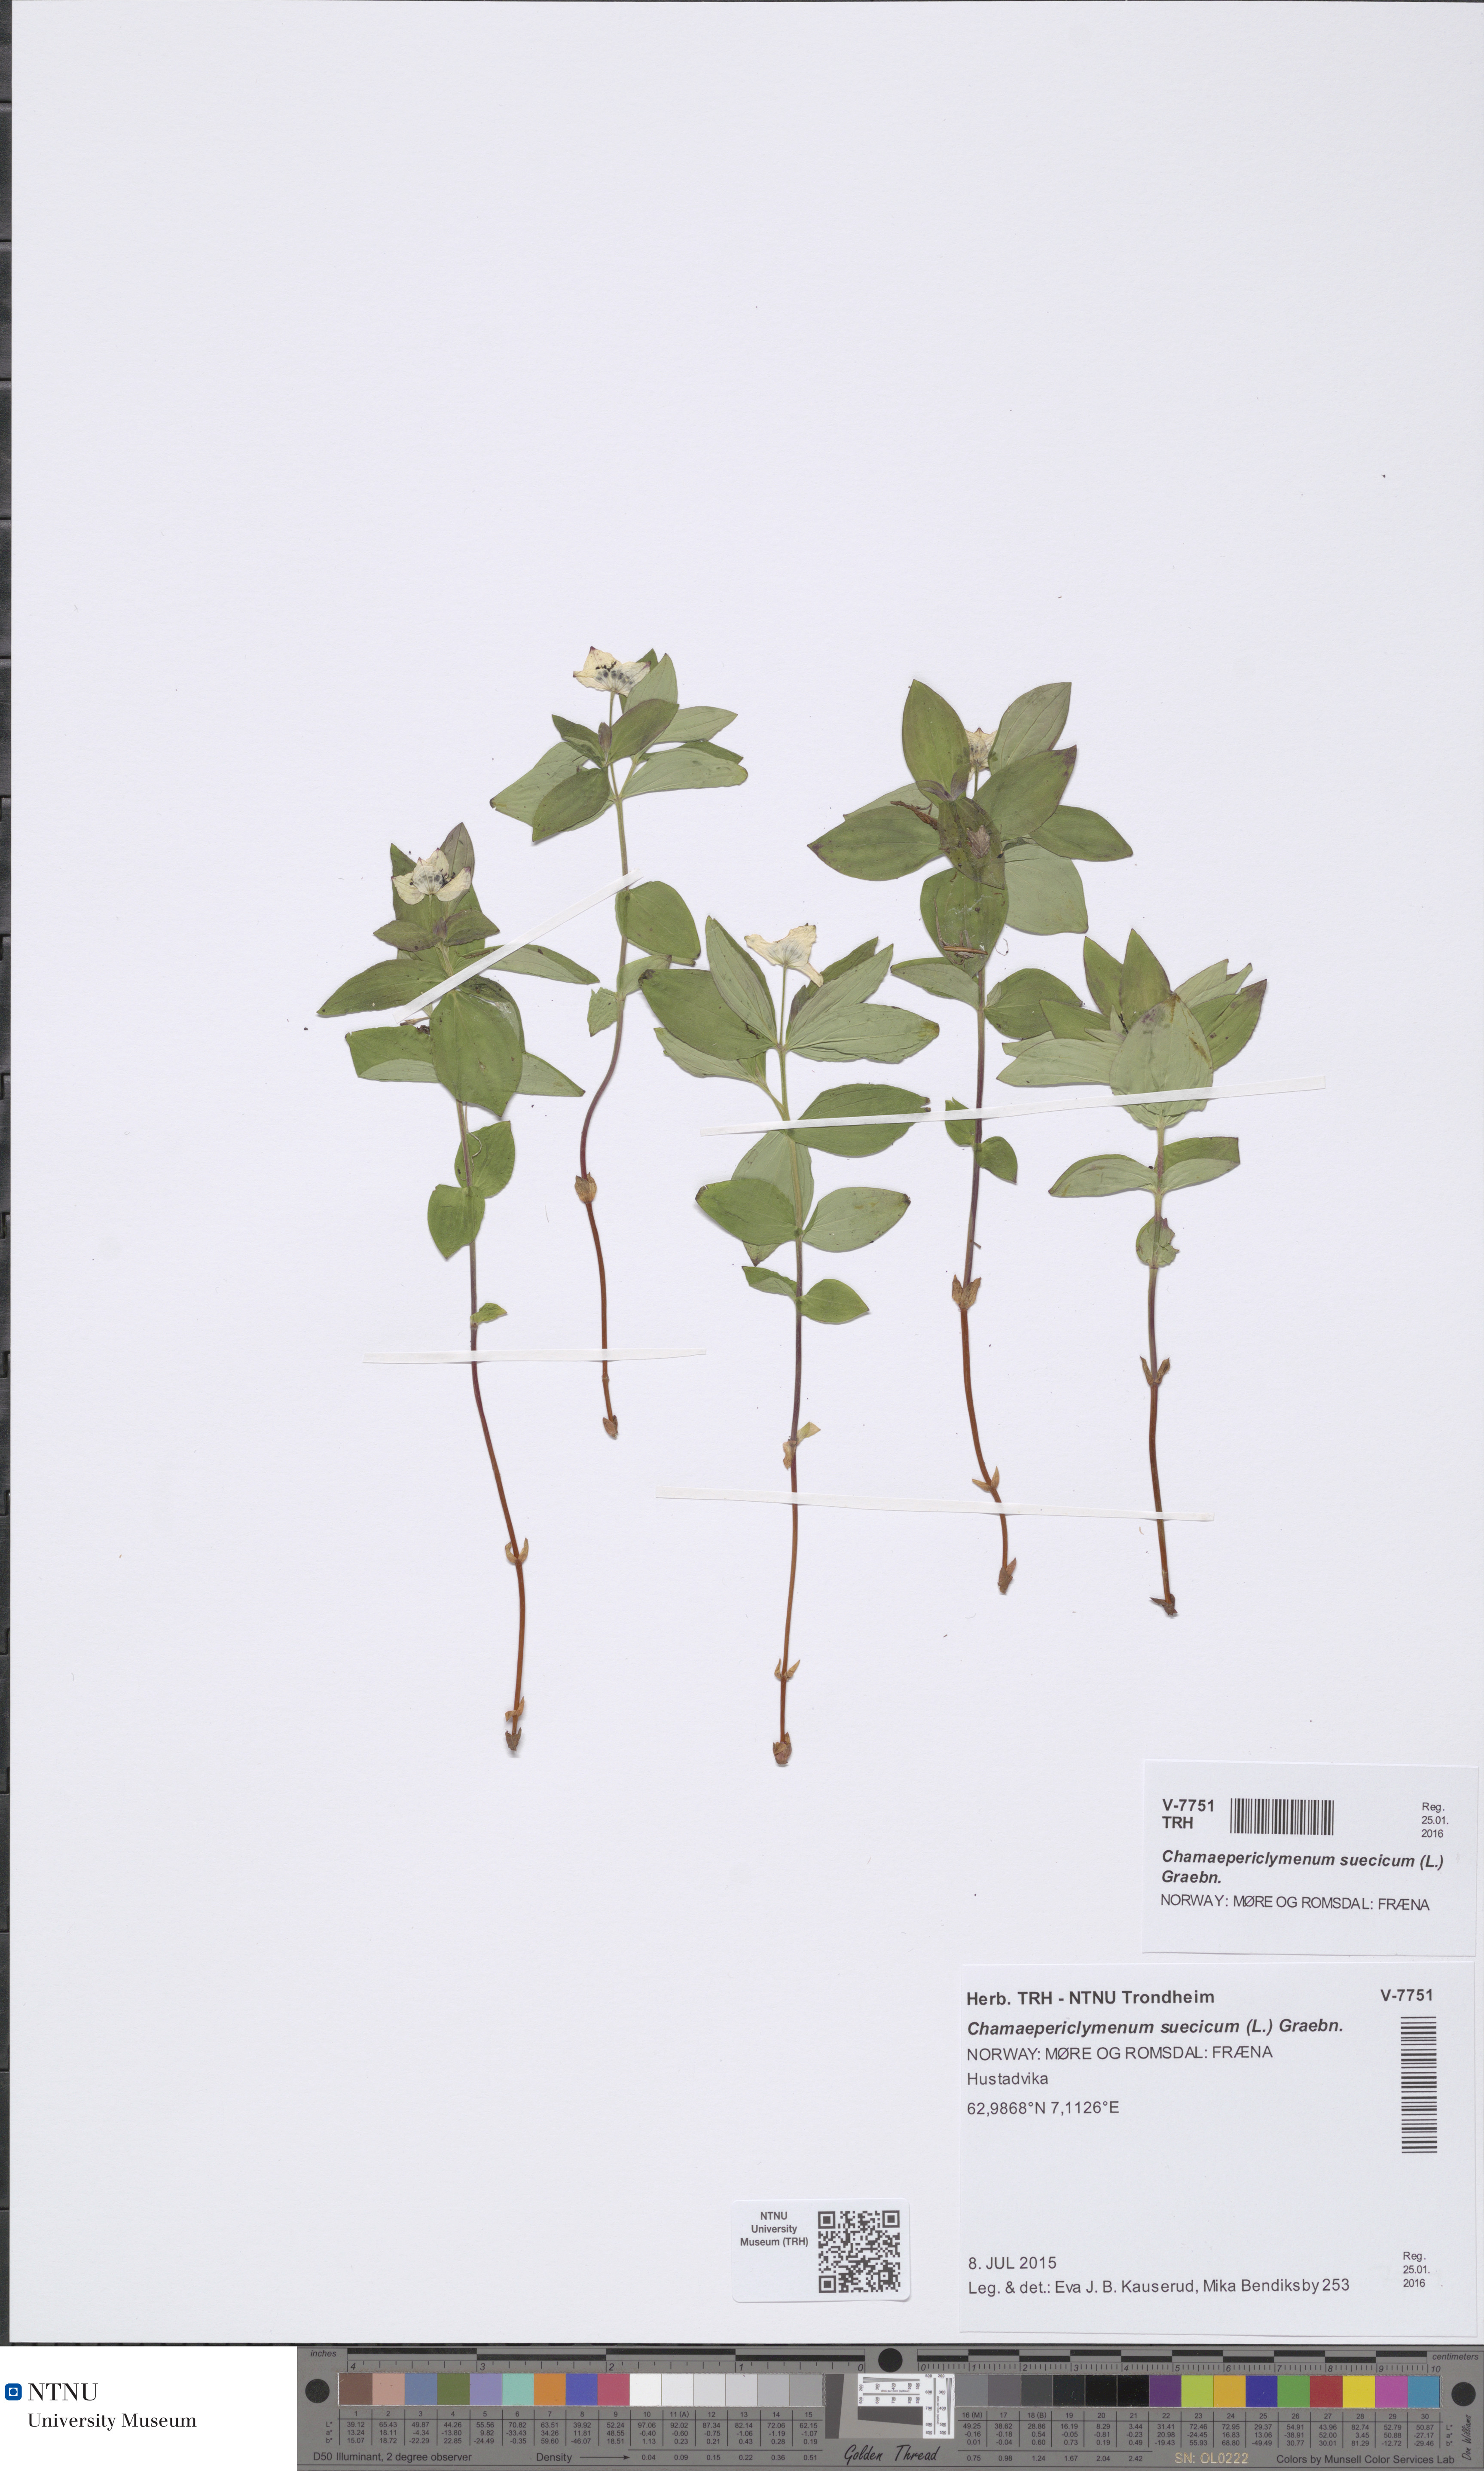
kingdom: Plantae
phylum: Tracheophyta
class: Magnoliopsida
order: Cornales
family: Cornaceae
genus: Cornus
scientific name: Cornus suecica
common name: Dwarf cornel
